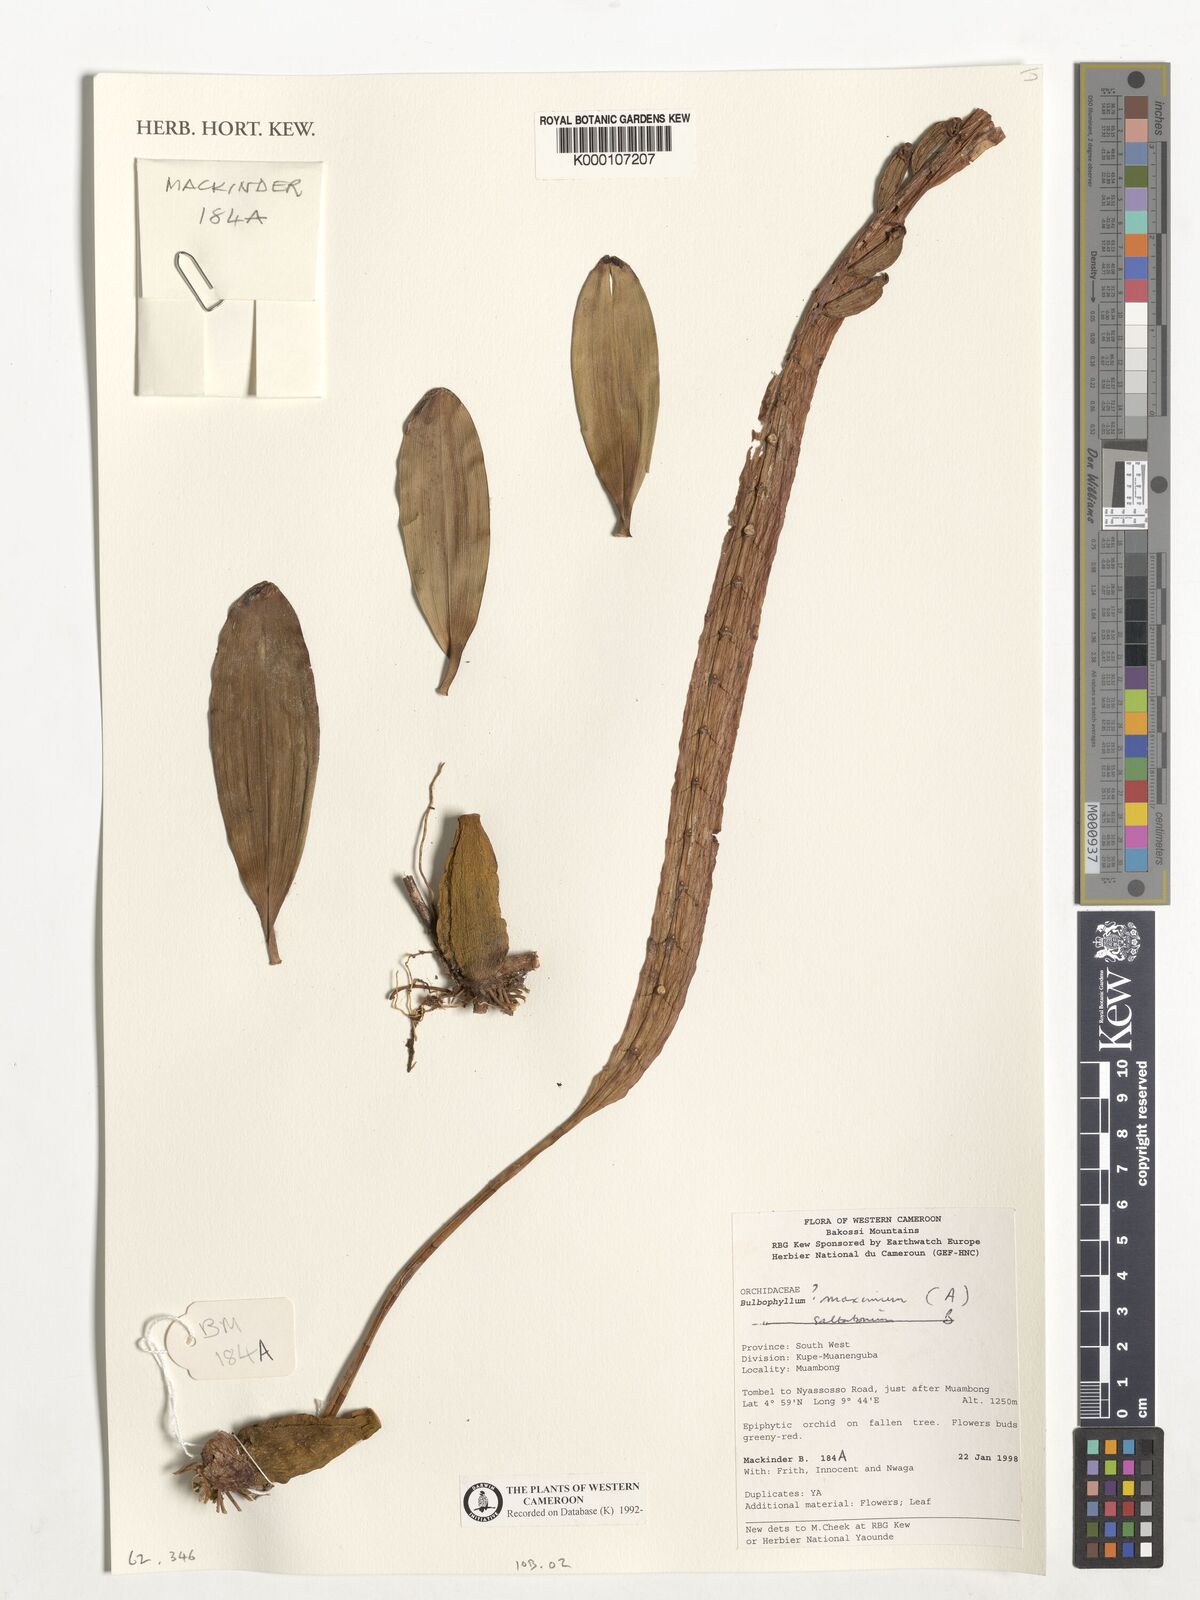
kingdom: Plantae
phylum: Tracheophyta
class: Liliopsida
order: Asparagales
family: Orchidaceae
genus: Bulbophyllum
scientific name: Bulbophyllum maximum
